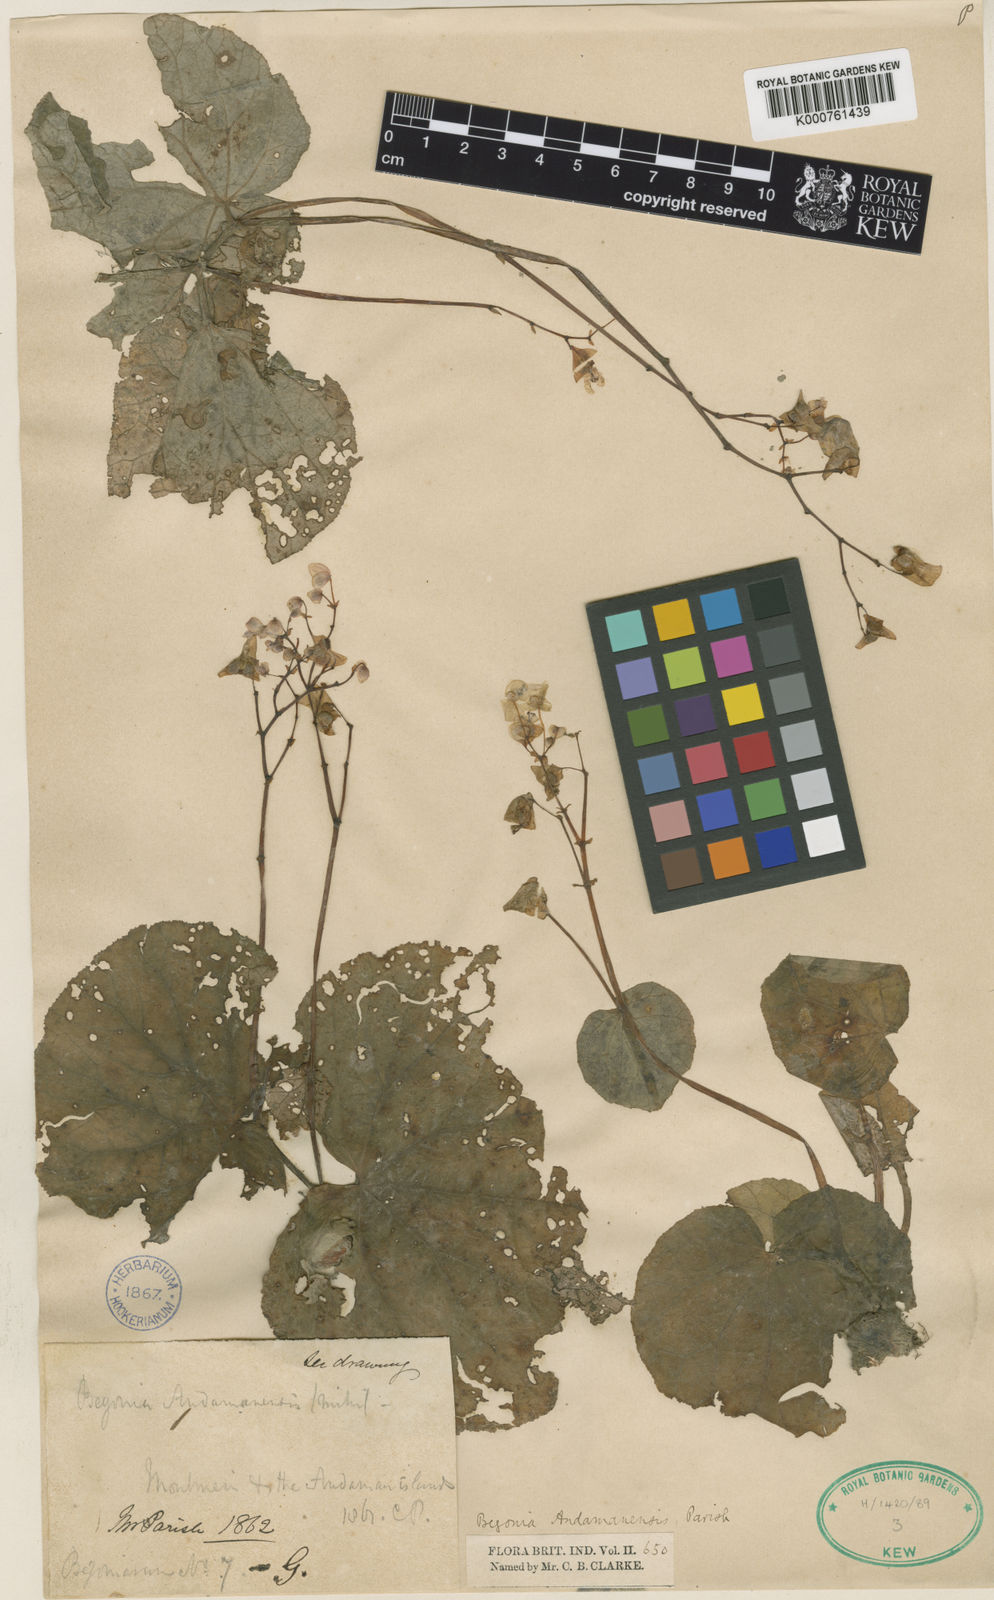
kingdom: Plantae
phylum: Tracheophyta
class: Magnoliopsida
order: Cucurbitales
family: Begoniaceae
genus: Begonia
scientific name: Begonia andamensis
